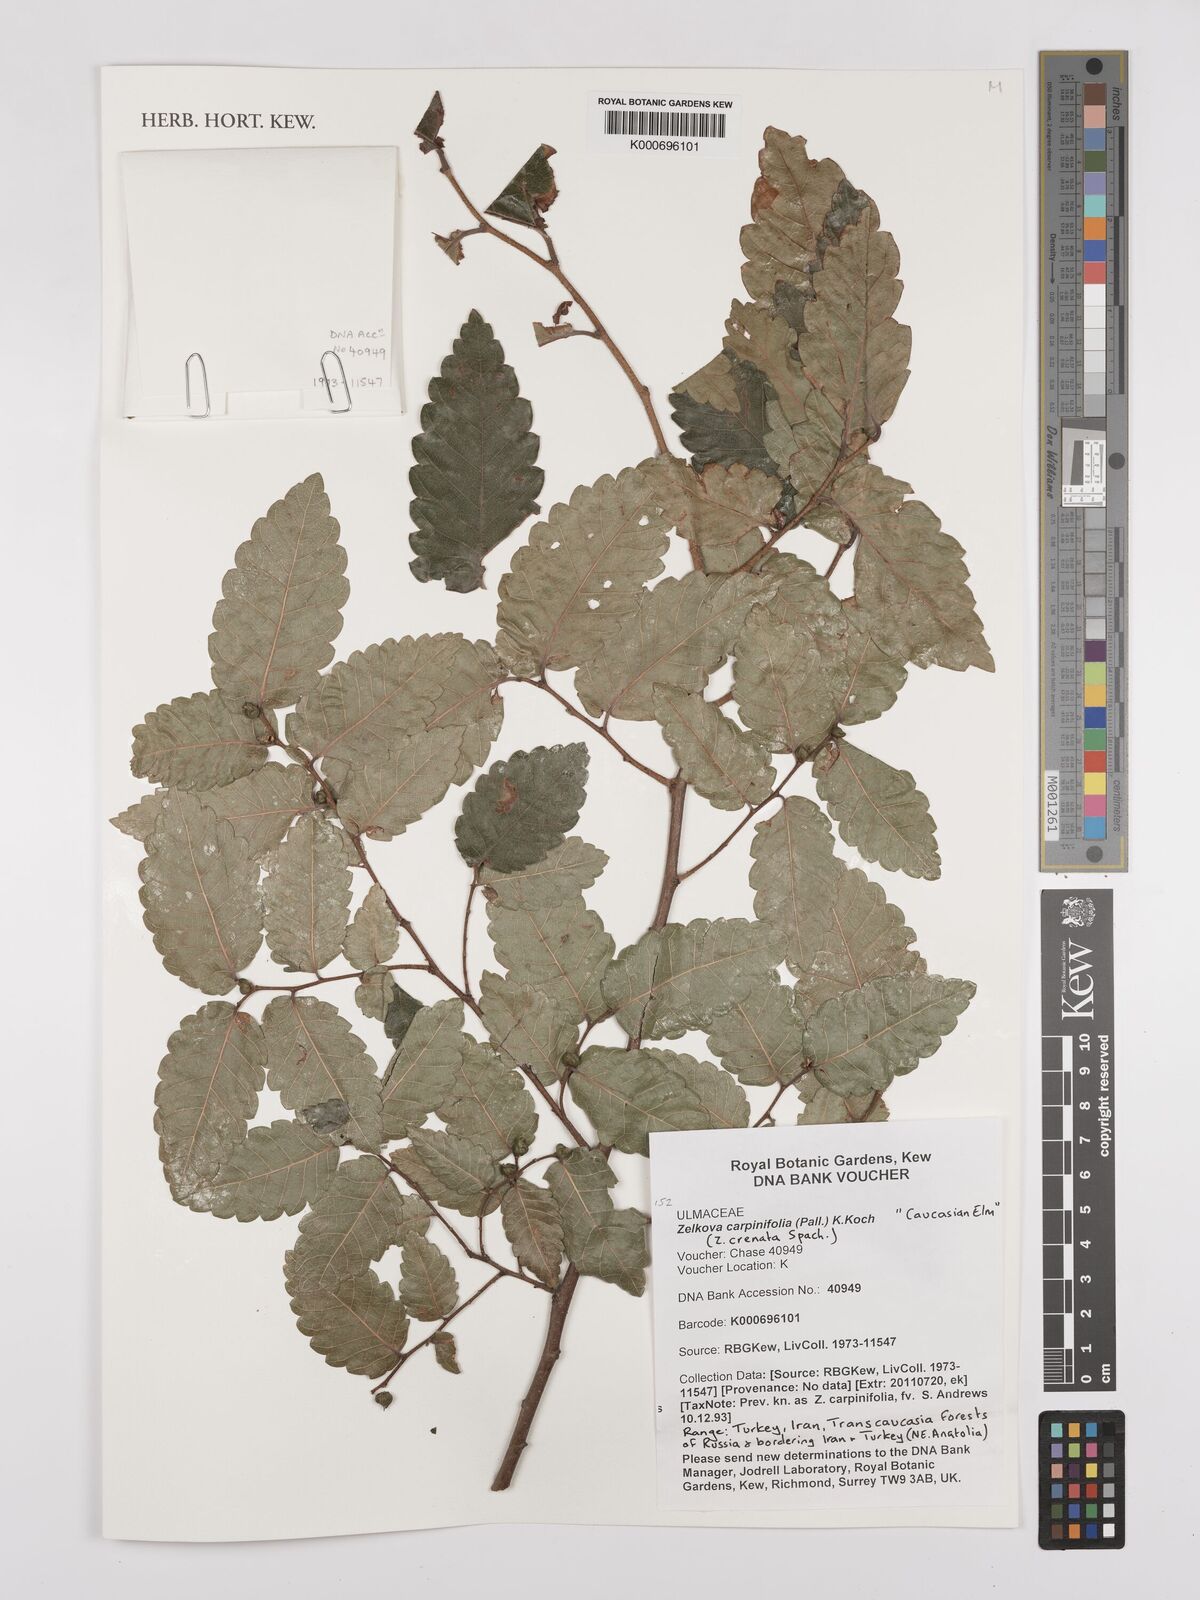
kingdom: Plantae
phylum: Tracheophyta
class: Magnoliopsida
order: Rosales
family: Ulmaceae
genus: Zelkova
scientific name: Zelkova carpinifolia
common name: Caucasian elm
